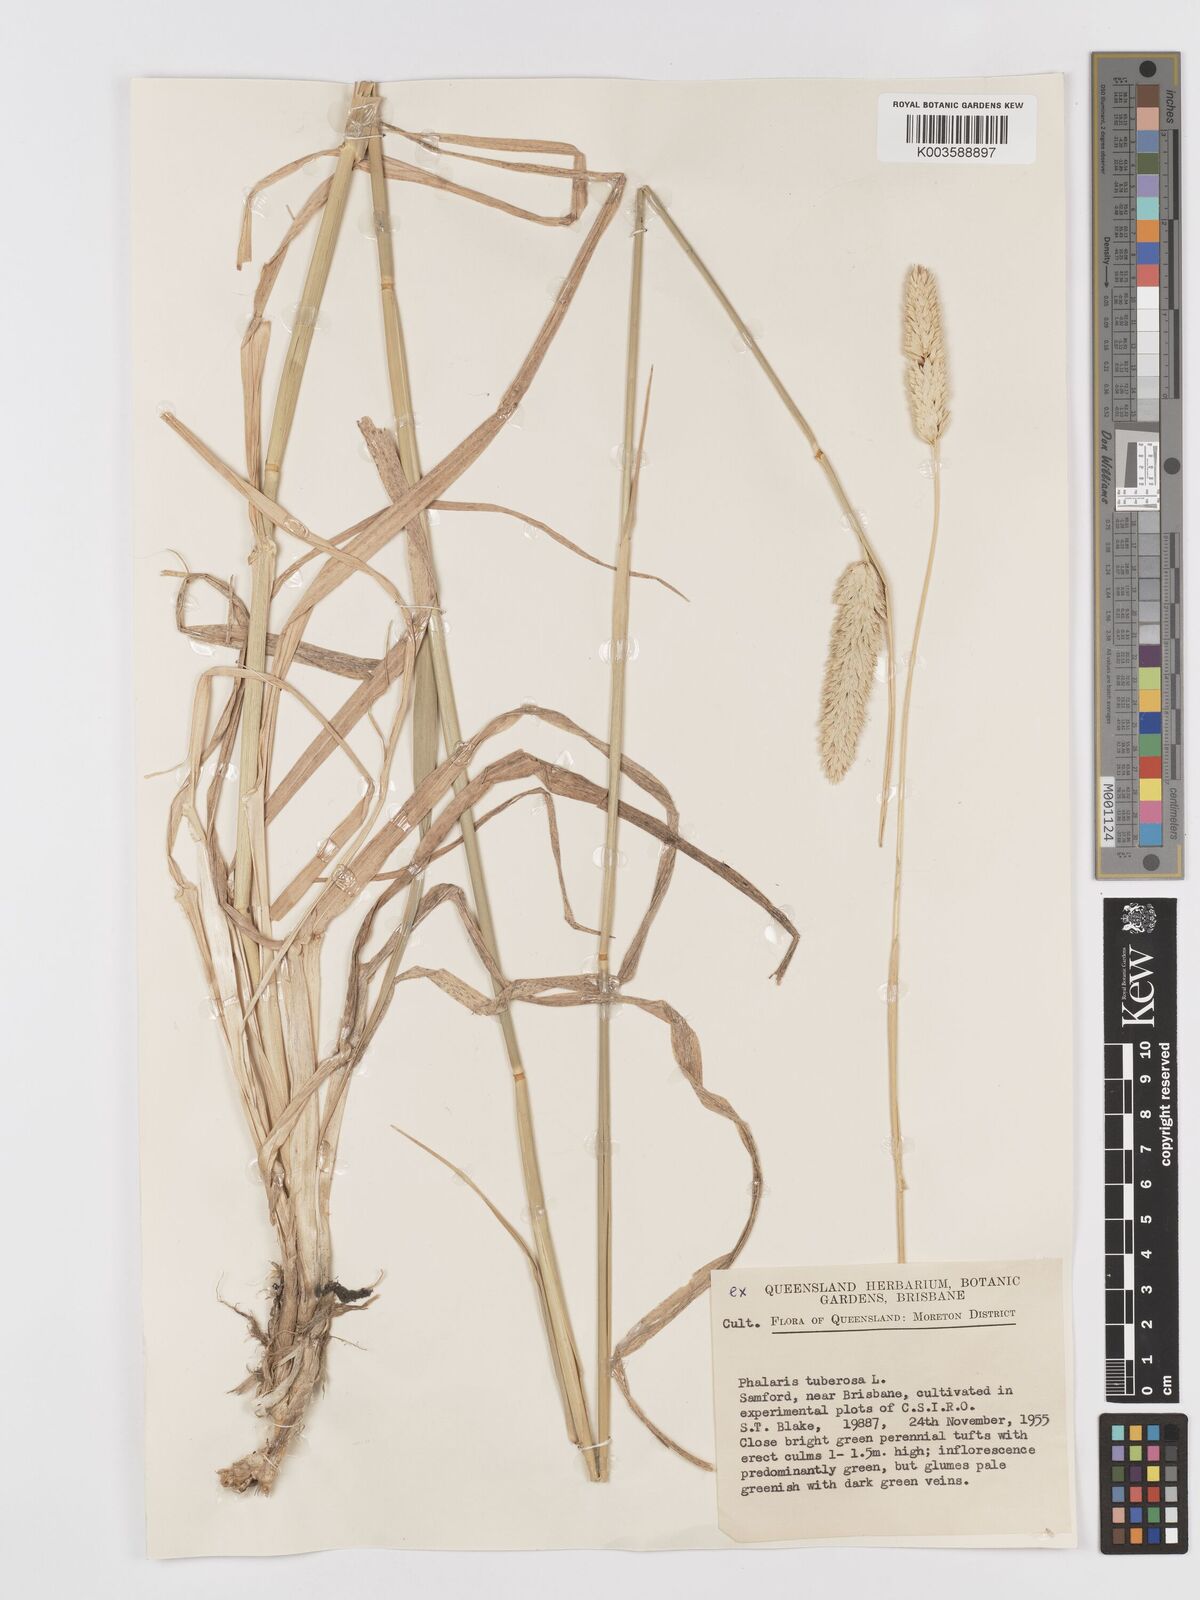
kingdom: Plantae
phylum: Tracheophyta
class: Liliopsida
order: Poales
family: Poaceae
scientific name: Poaceae
